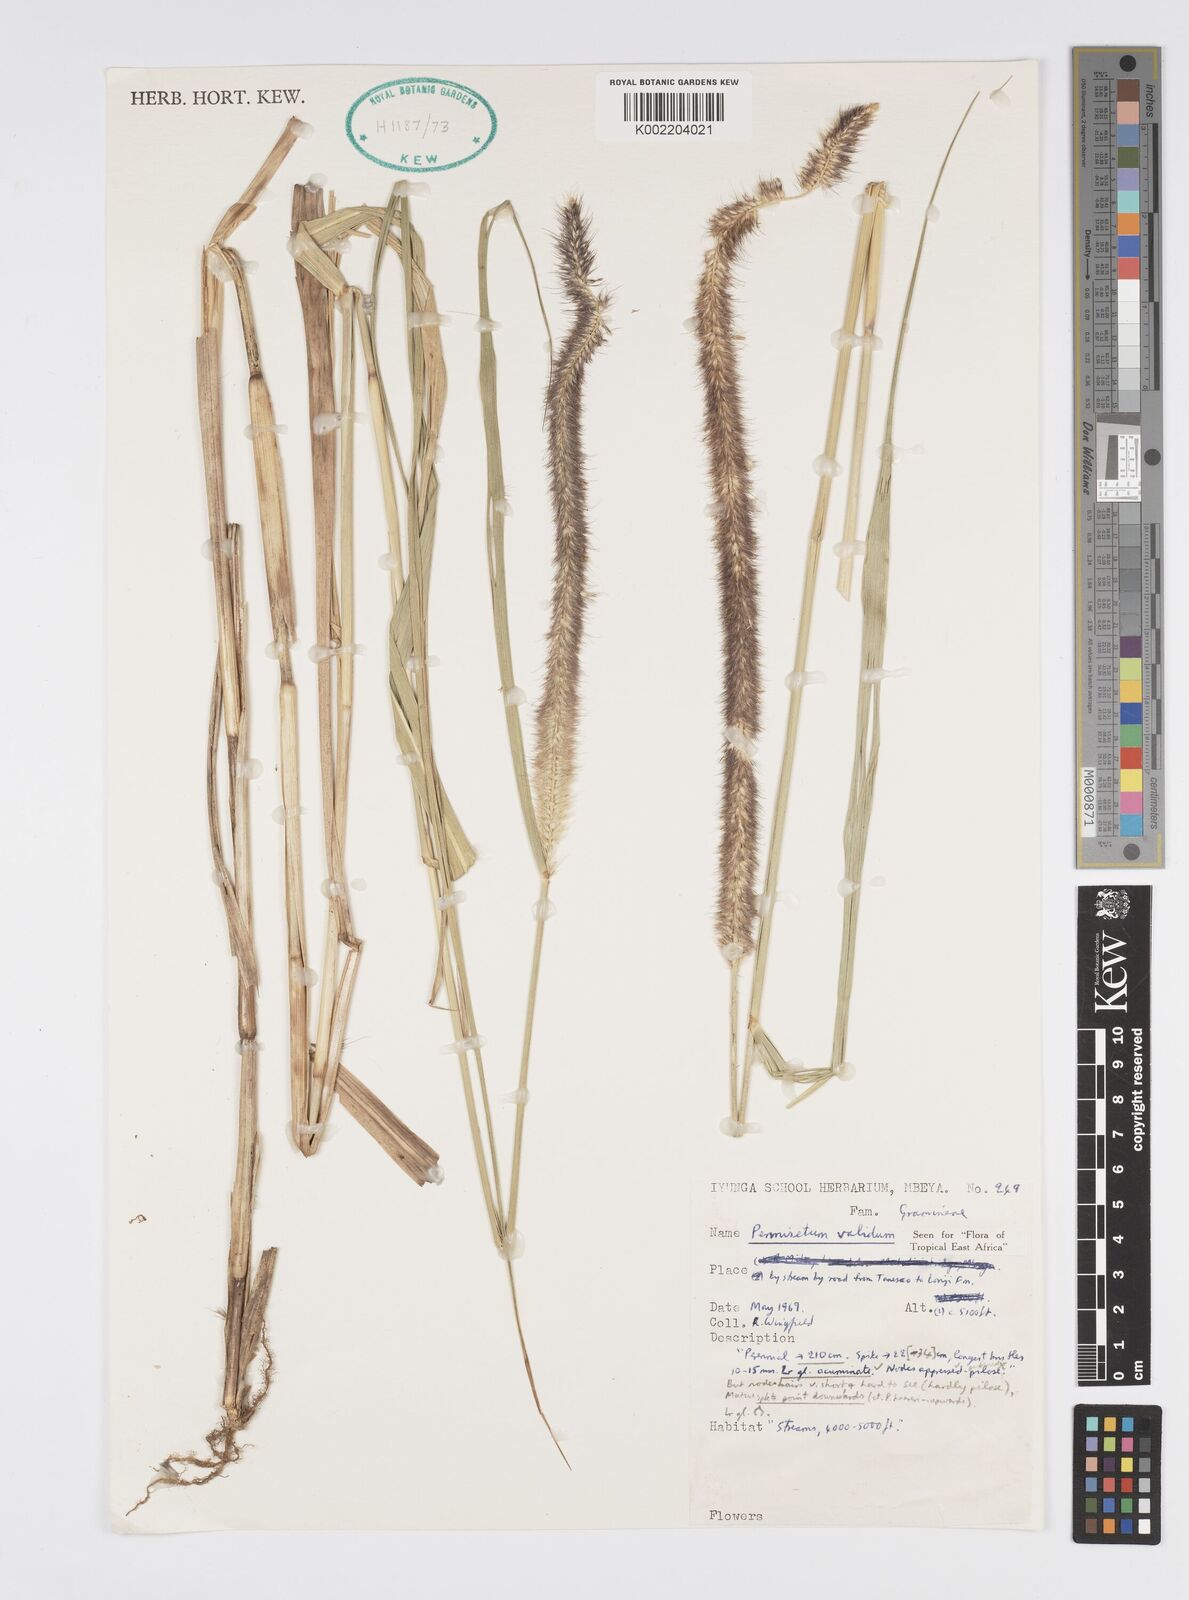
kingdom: Plantae
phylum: Tracheophyta
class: Liliopsida
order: Poales
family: Poaceae
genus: Cenchrus
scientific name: Cenchrus Pennisetum spec
